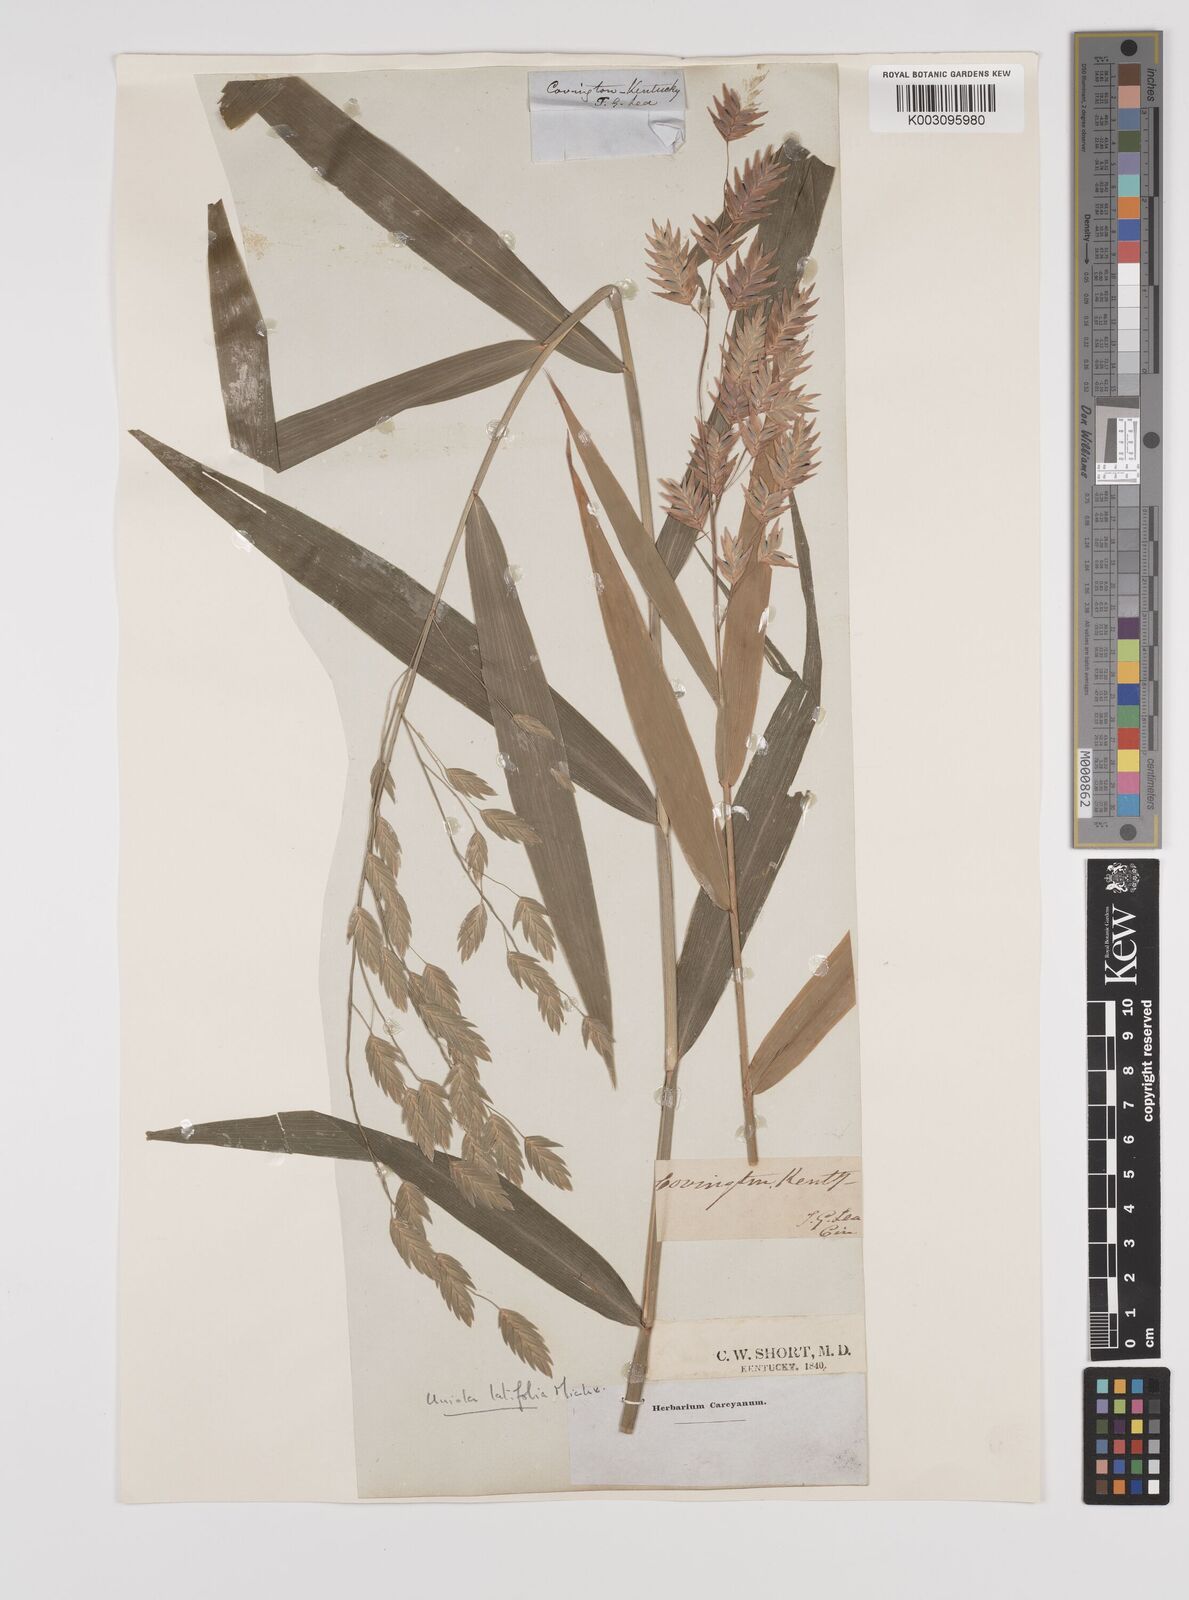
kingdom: Plantae
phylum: Tracheophyta
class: Liliopsida
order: Poales
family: Poaceae
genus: Chasmanthium
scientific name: Chasmanthium latifolium
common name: Broad-leaved chasmanthium
